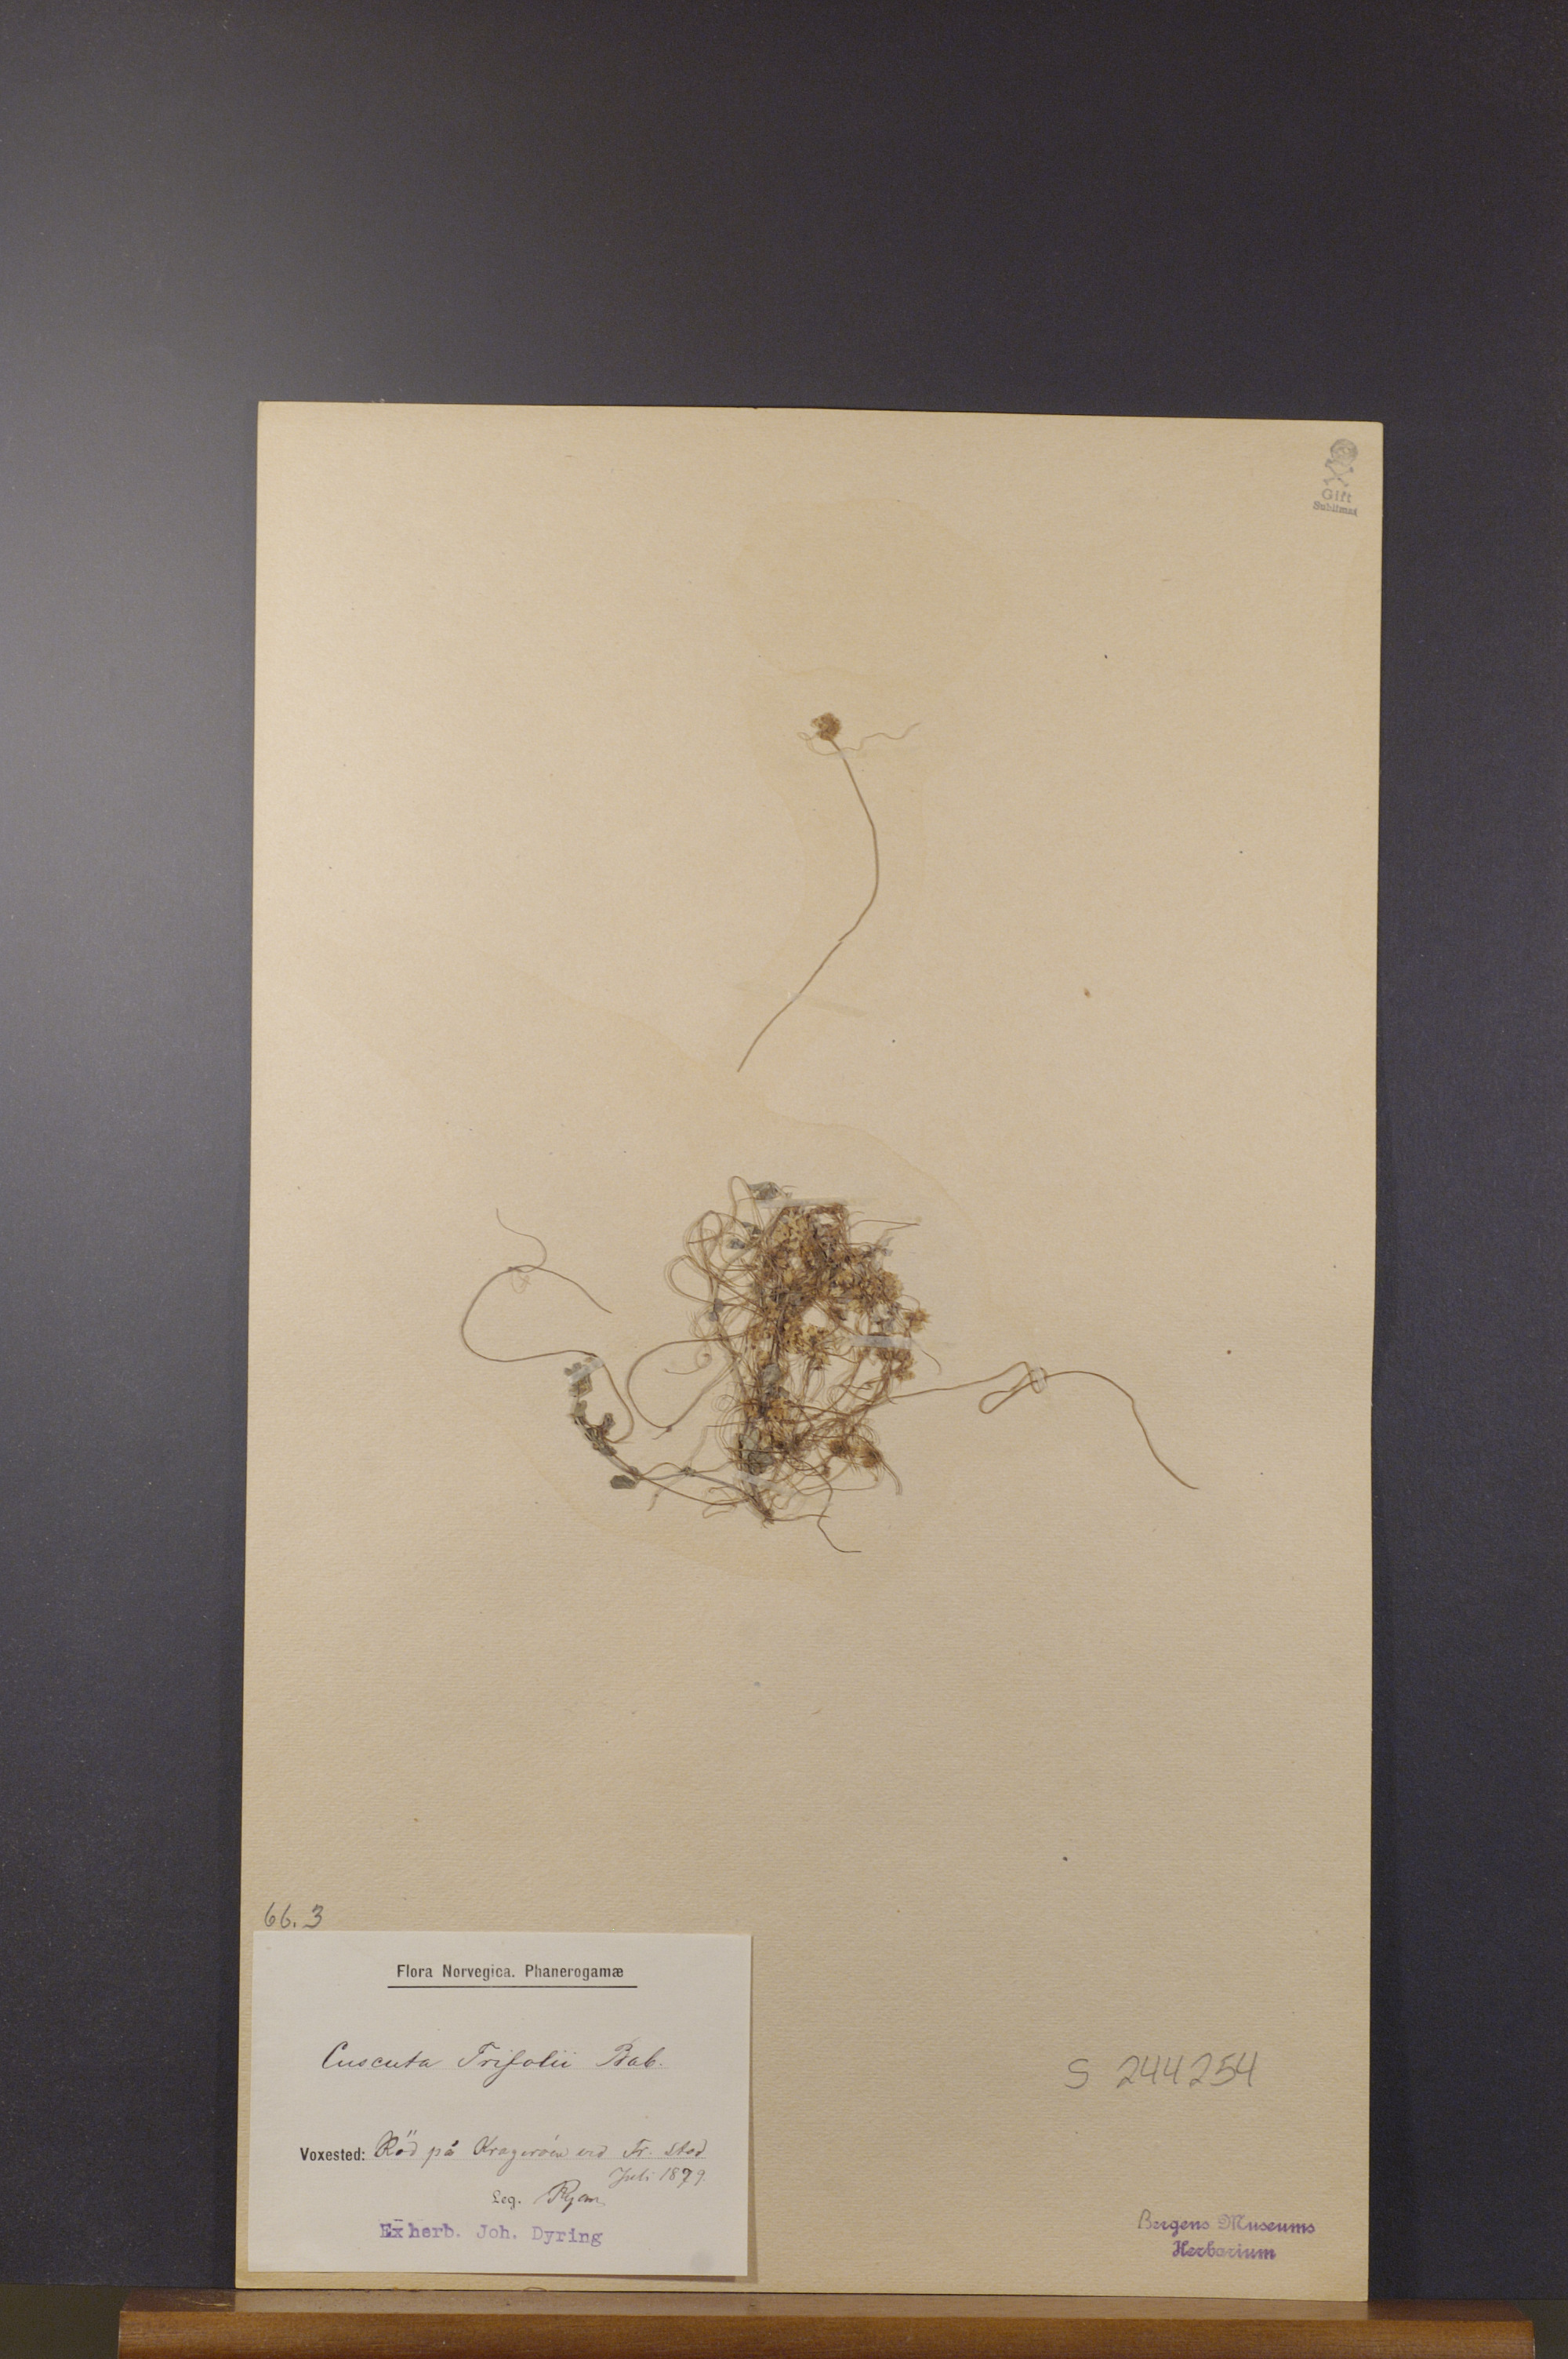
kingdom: Plantae
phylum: Tracheophyta
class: Magnoliopsida
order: Solanales
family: Convolvulaceae
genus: Cuscuta
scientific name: Cuscuta epithymum
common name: Clover dodder
